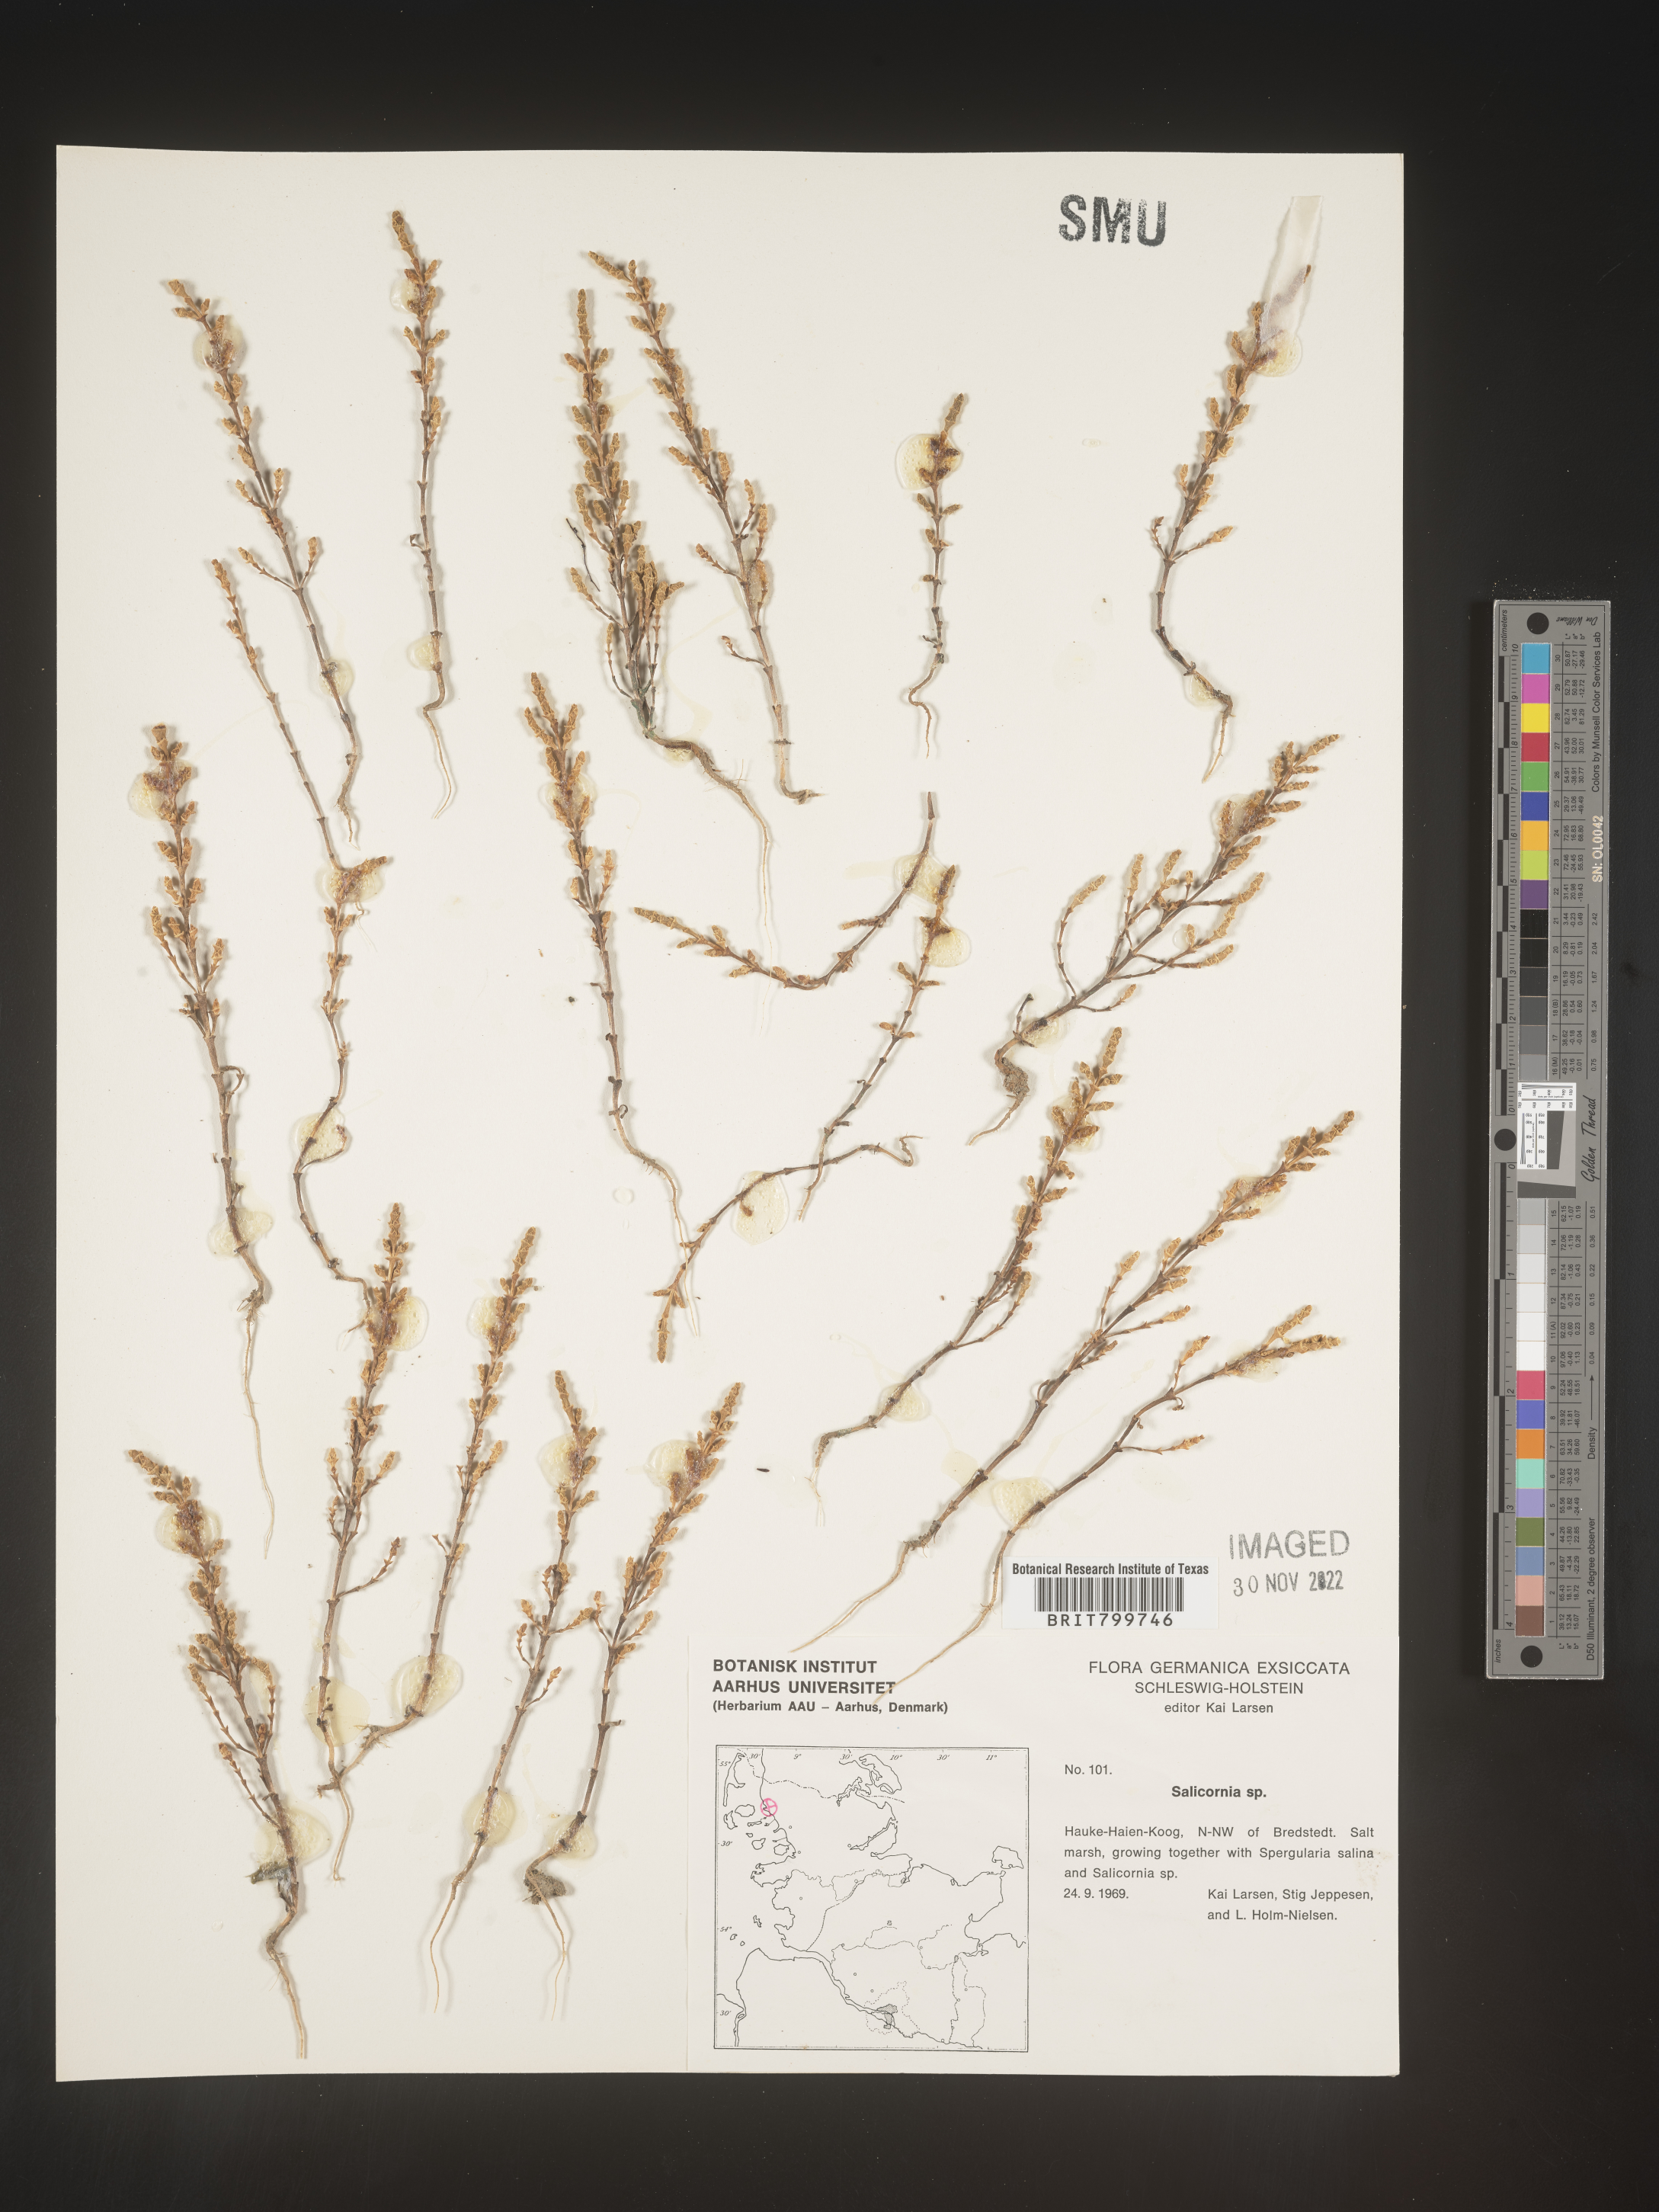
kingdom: Plantae
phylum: Tracheophyta
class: Magnoliopsida
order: Caryophyllales
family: Amaranthaceae
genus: Salicornia
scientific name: Salicornia
